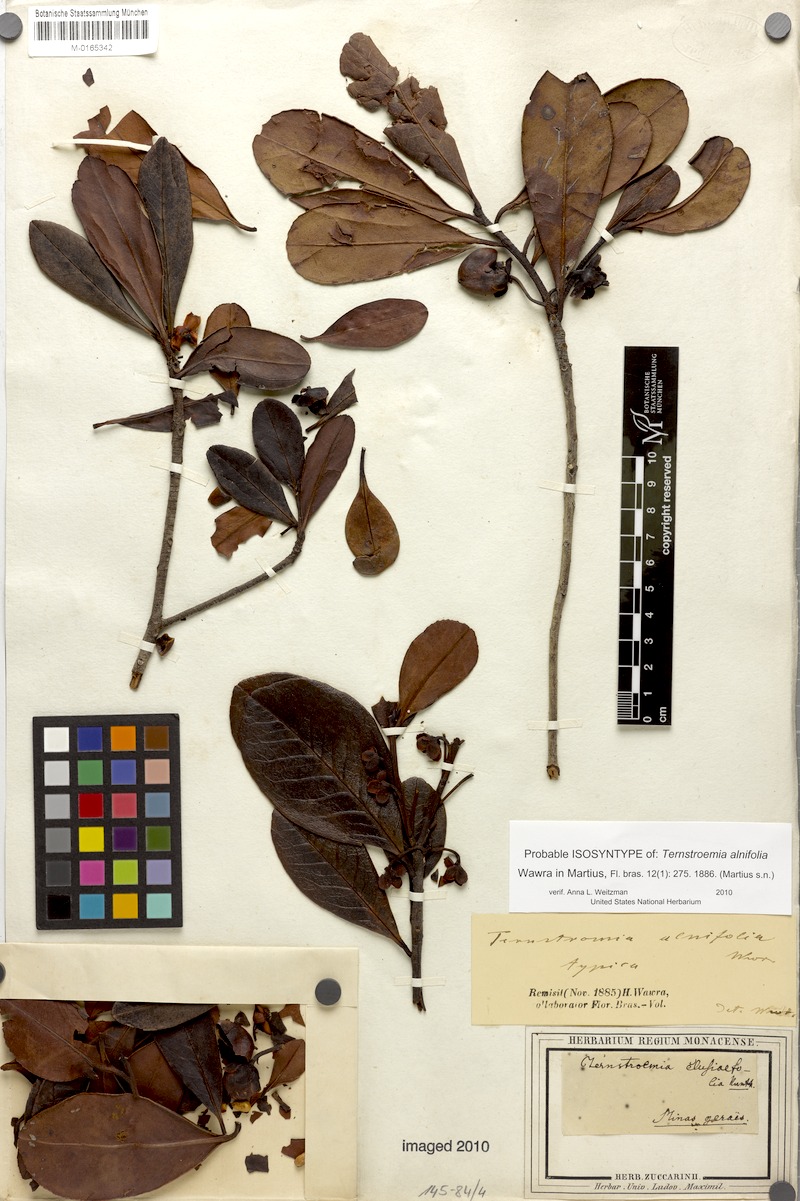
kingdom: Plantae
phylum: Tracheophyta
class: Magnoliopsida
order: Ericales
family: Pentaphylacaceae
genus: Ternstroemia
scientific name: Ternstroemia alnifolia
